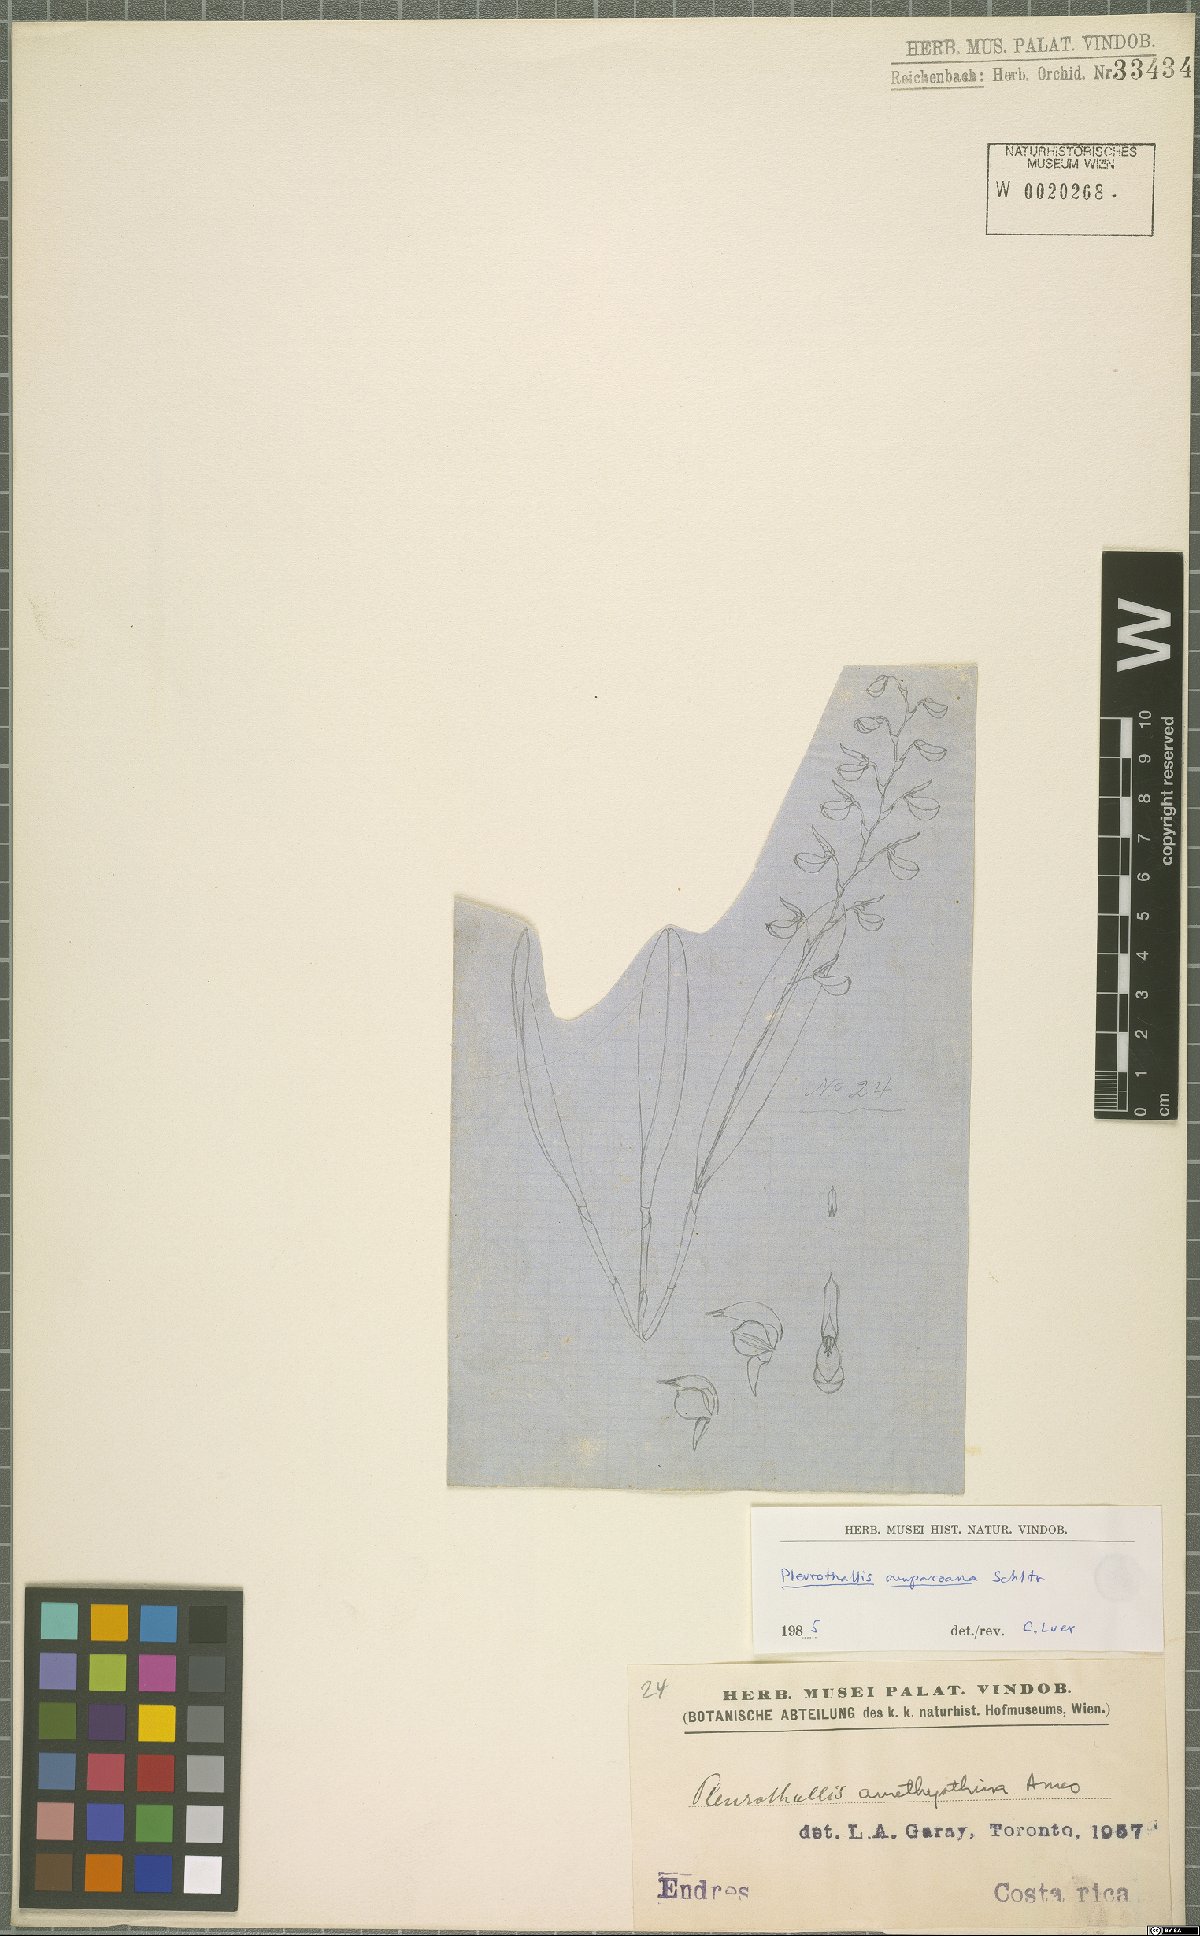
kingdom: Plantae
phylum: Tracheophyta
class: Liliopsida
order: Asparagales
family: Orchidaceae
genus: Stelis
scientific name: Stelis pilosa
